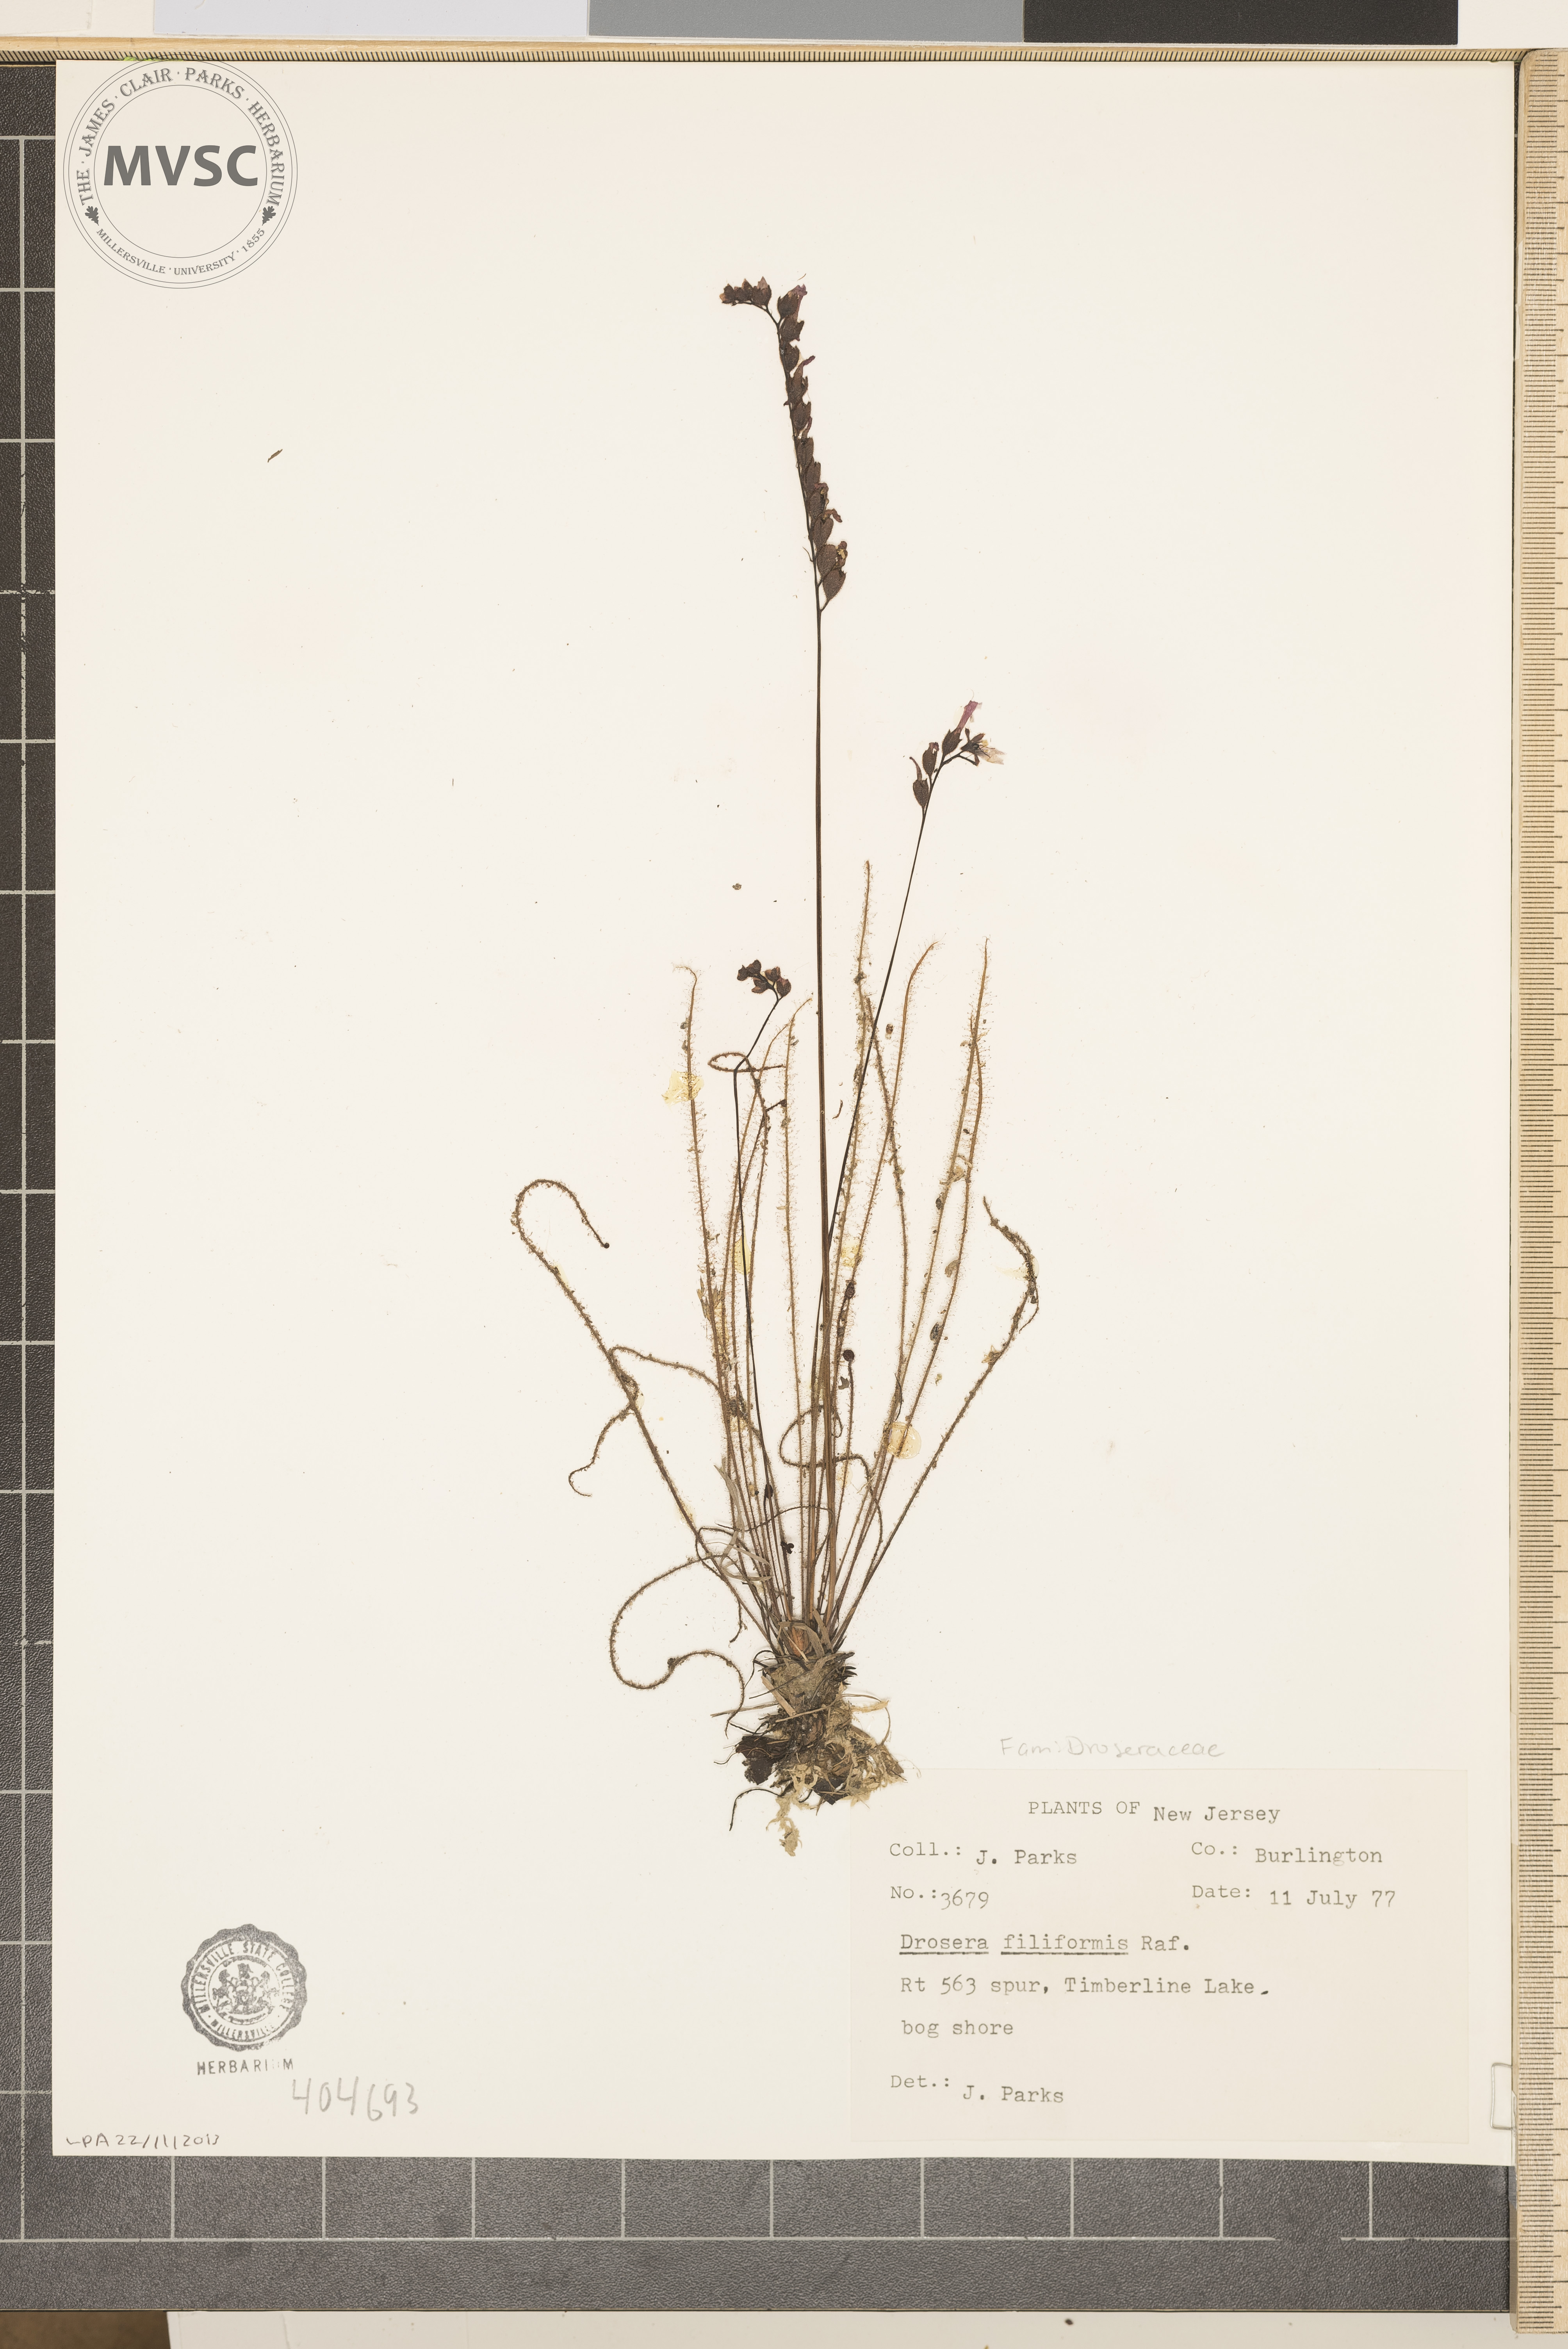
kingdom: Plantae
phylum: Tracheophyta
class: Magnoliopsida
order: Caryophyllales
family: Droseraceae
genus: Drosera
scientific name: Drosera filiformis
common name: sundew
